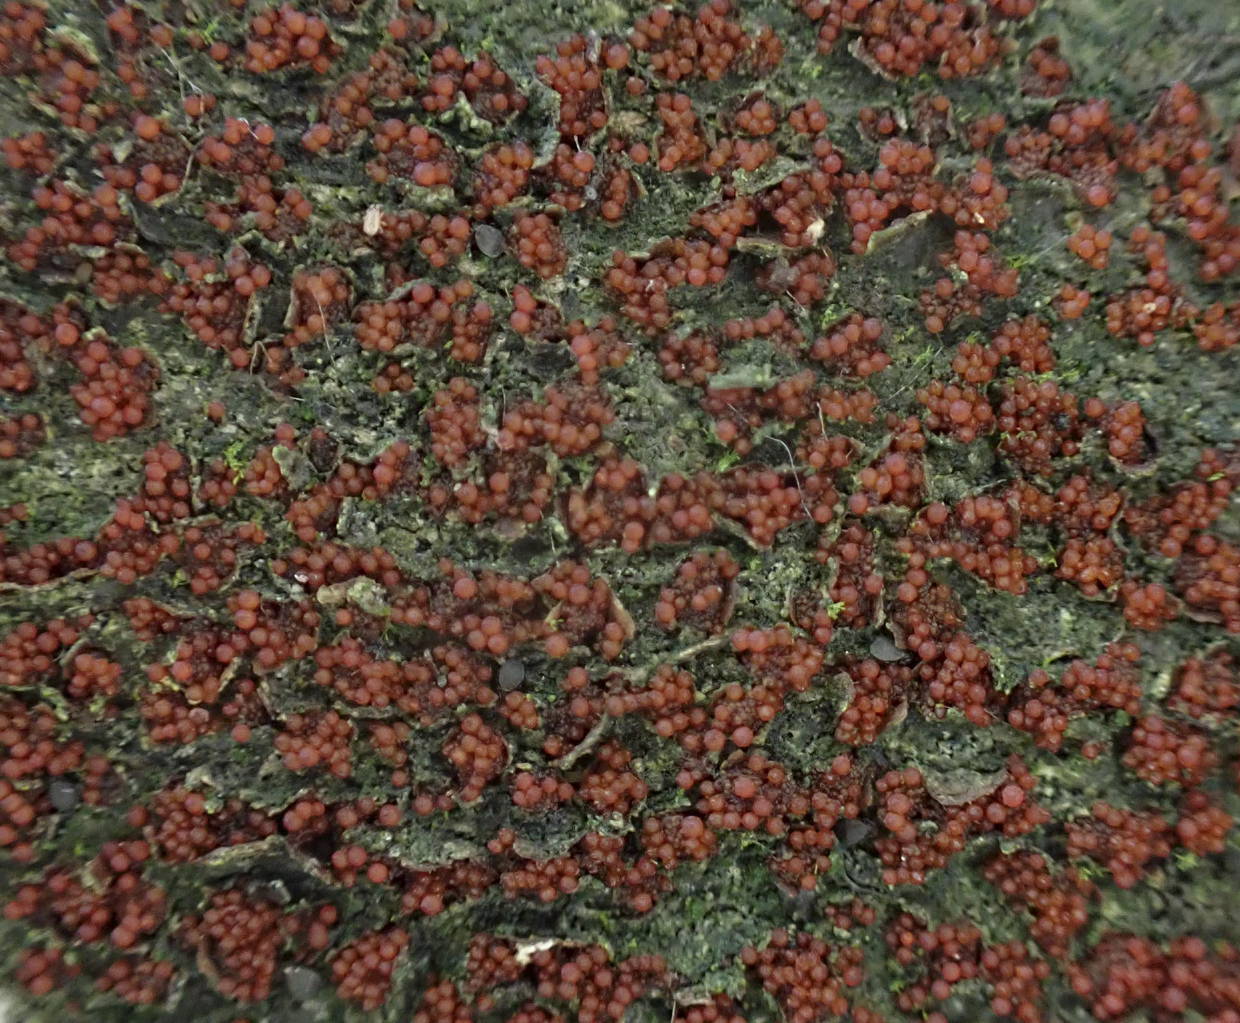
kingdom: Fungi
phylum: Ascomycota
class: Sordariomycetes
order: Hypocreales
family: Nectriaceae
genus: Neonectria
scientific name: Neonectria coccinea
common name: bøgebark-cinnobersvamp
